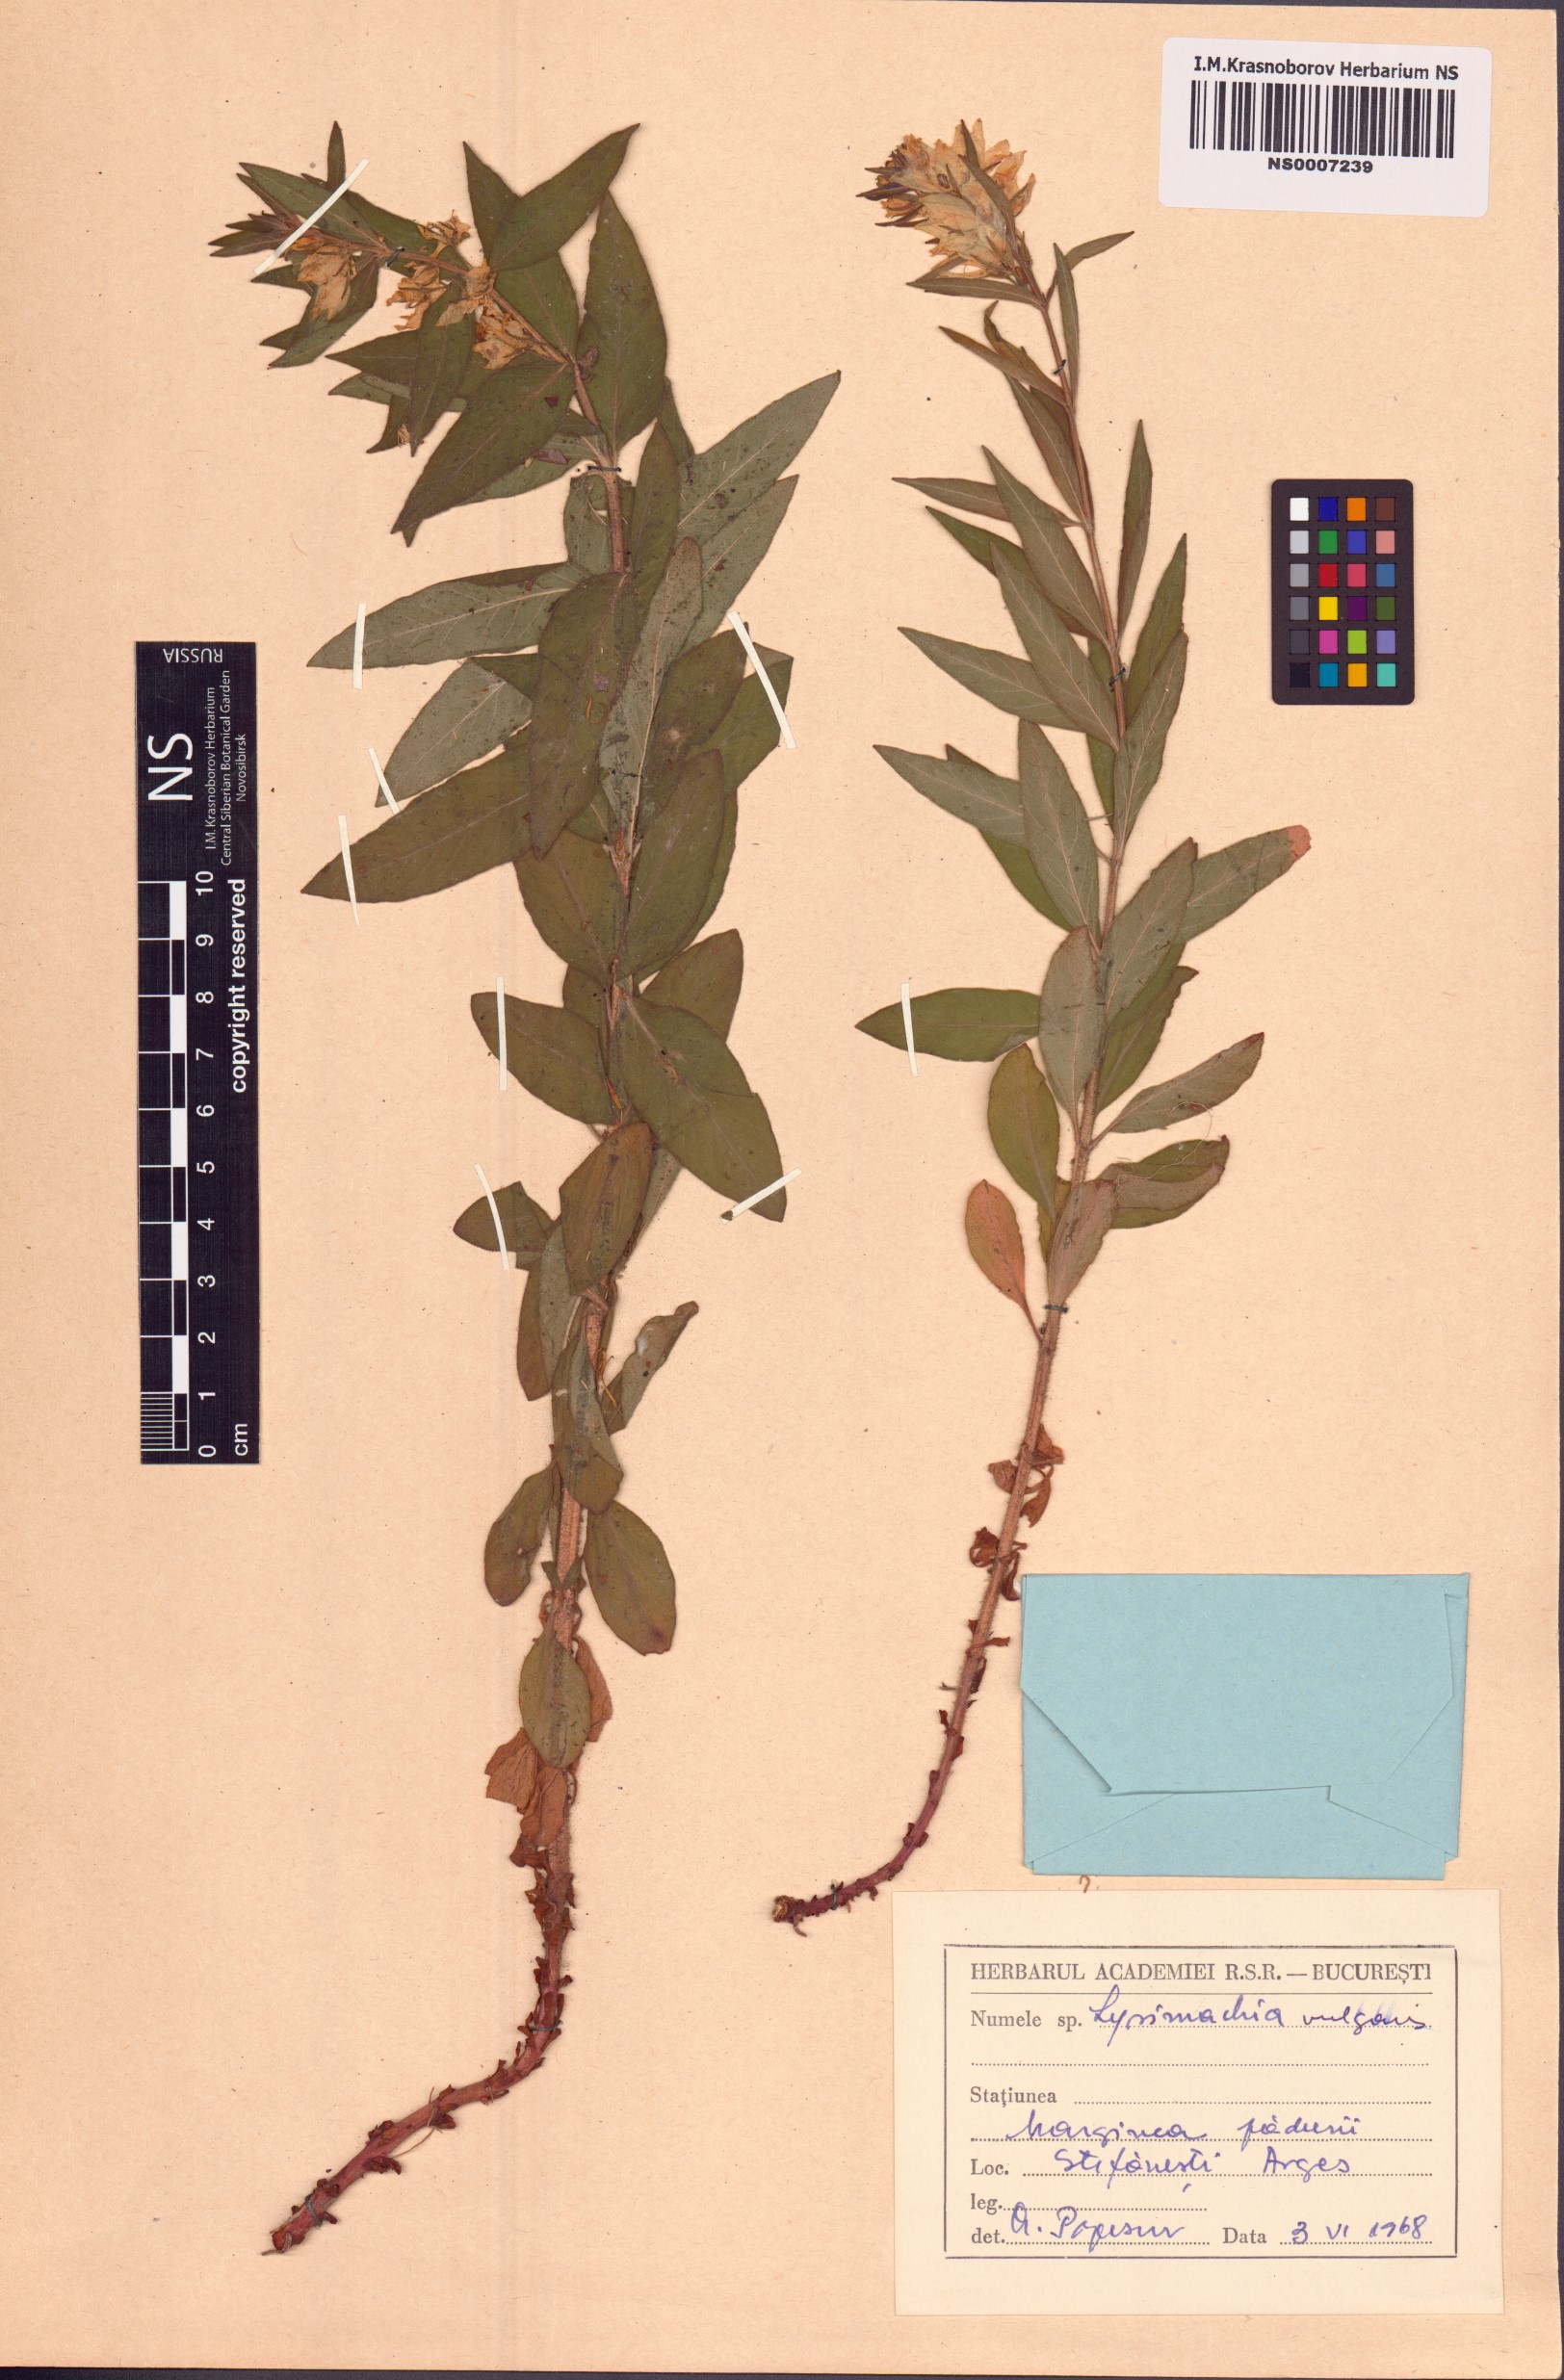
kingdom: Plantae
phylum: Tracheophyta
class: Magnoliopsida
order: Ericales
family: Primulaceae
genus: Lysimachia
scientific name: Lysimachia vulgaris
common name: Yellow loosestrife
